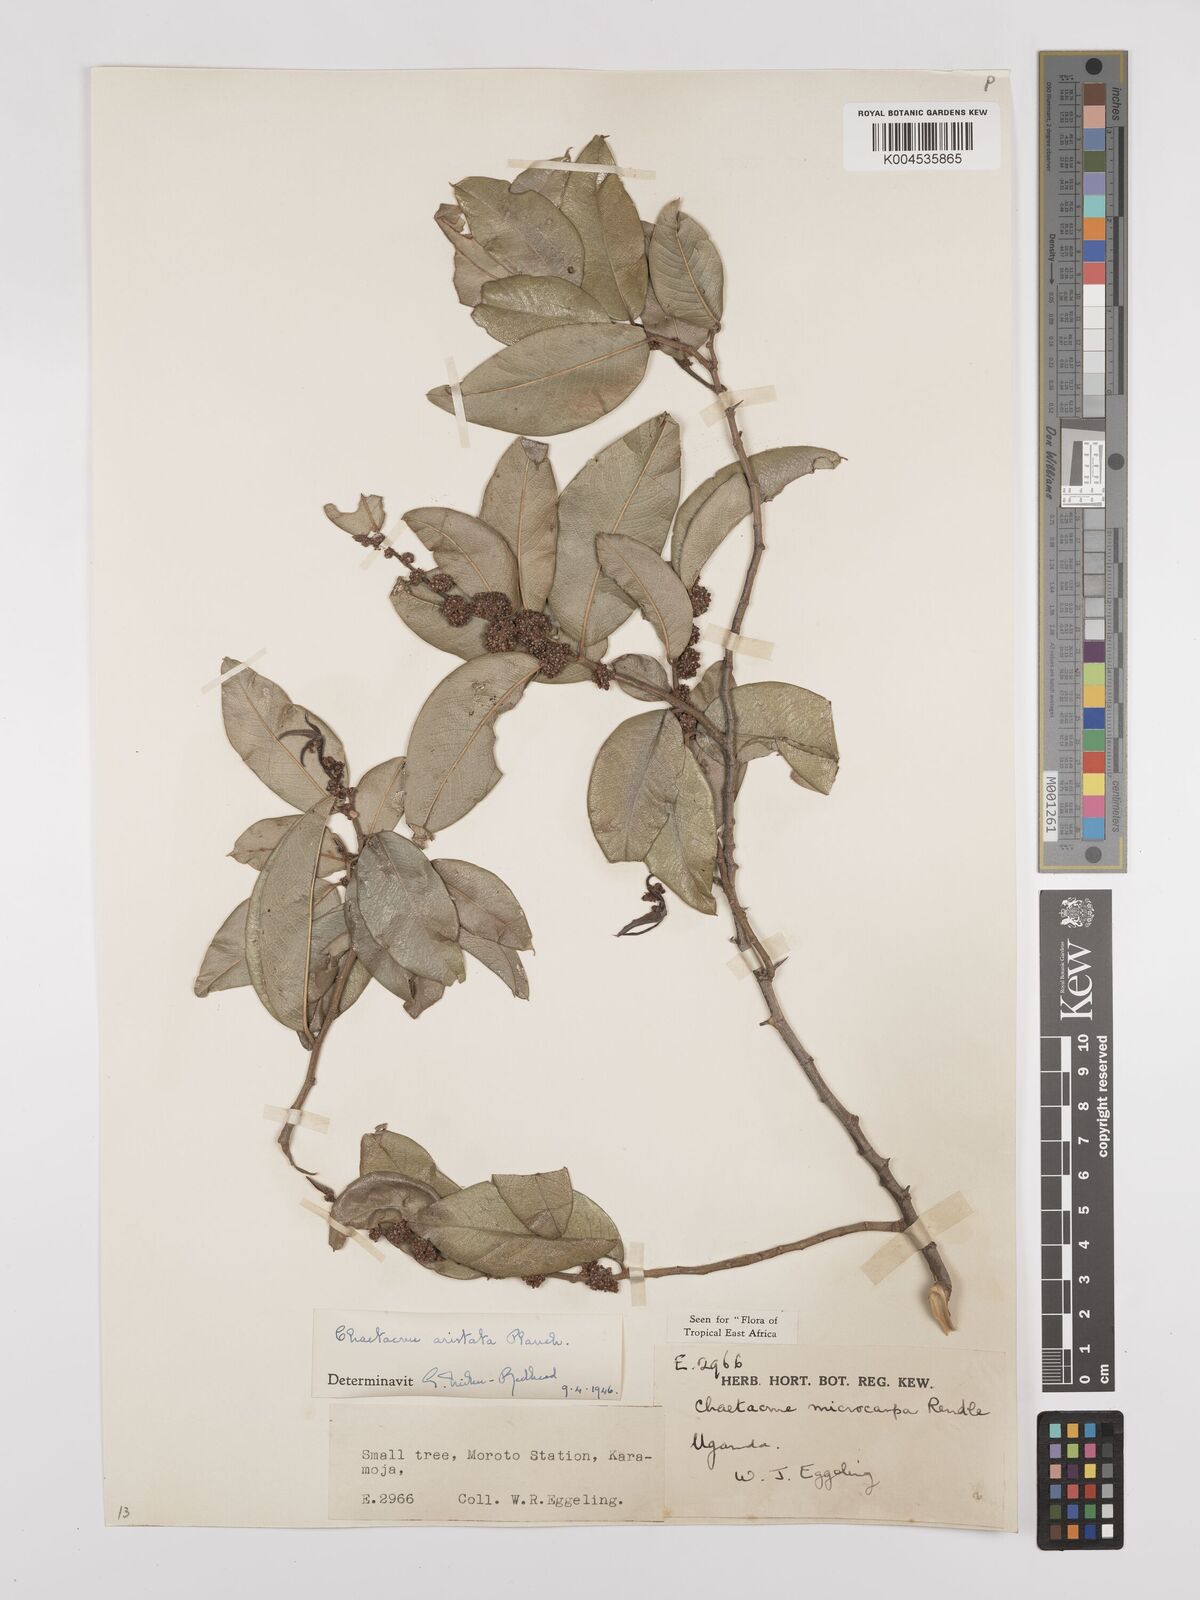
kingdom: Plantae
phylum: Tracheophyta
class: Magnoliopsida
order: Rosales
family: Cannabaceae
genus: Chaetachme
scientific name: Chaetachme aristata
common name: Thorny elm
